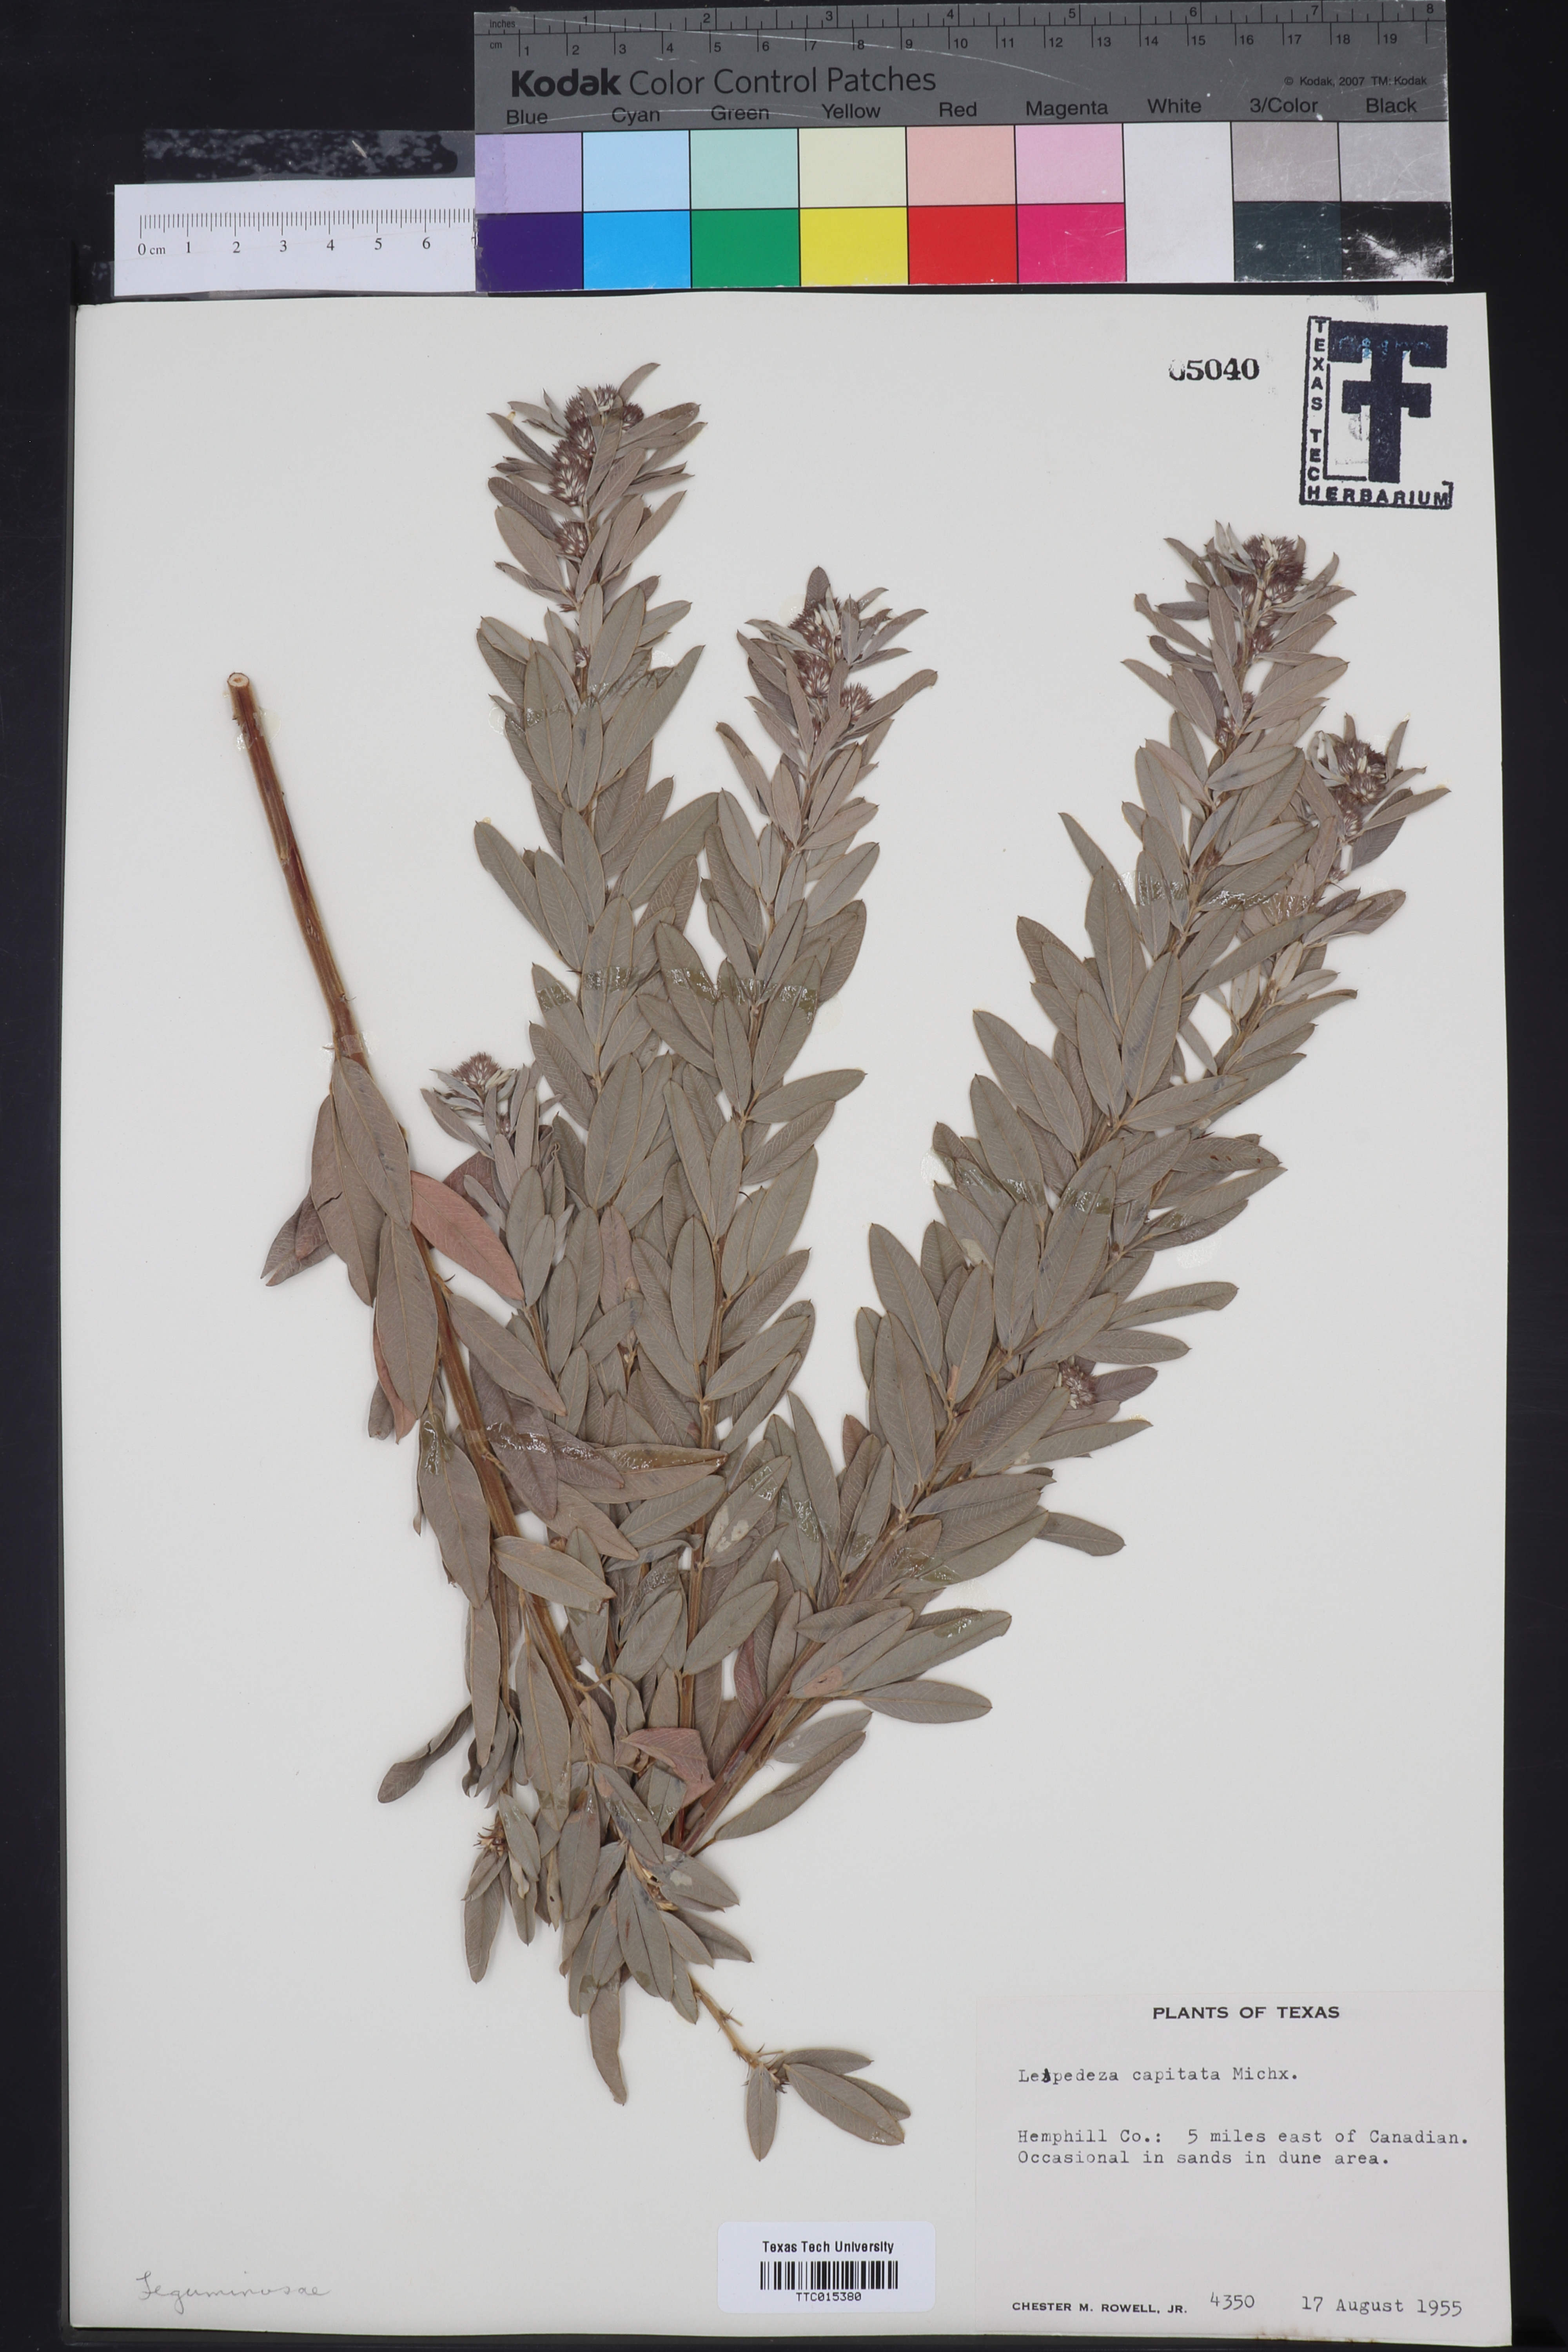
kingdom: Plantae
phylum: Tracheophyta
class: Magnoliopsida
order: Fabales
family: Fabaceae
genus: Lespedeza
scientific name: Lespedeza capitata
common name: Dusty clover
